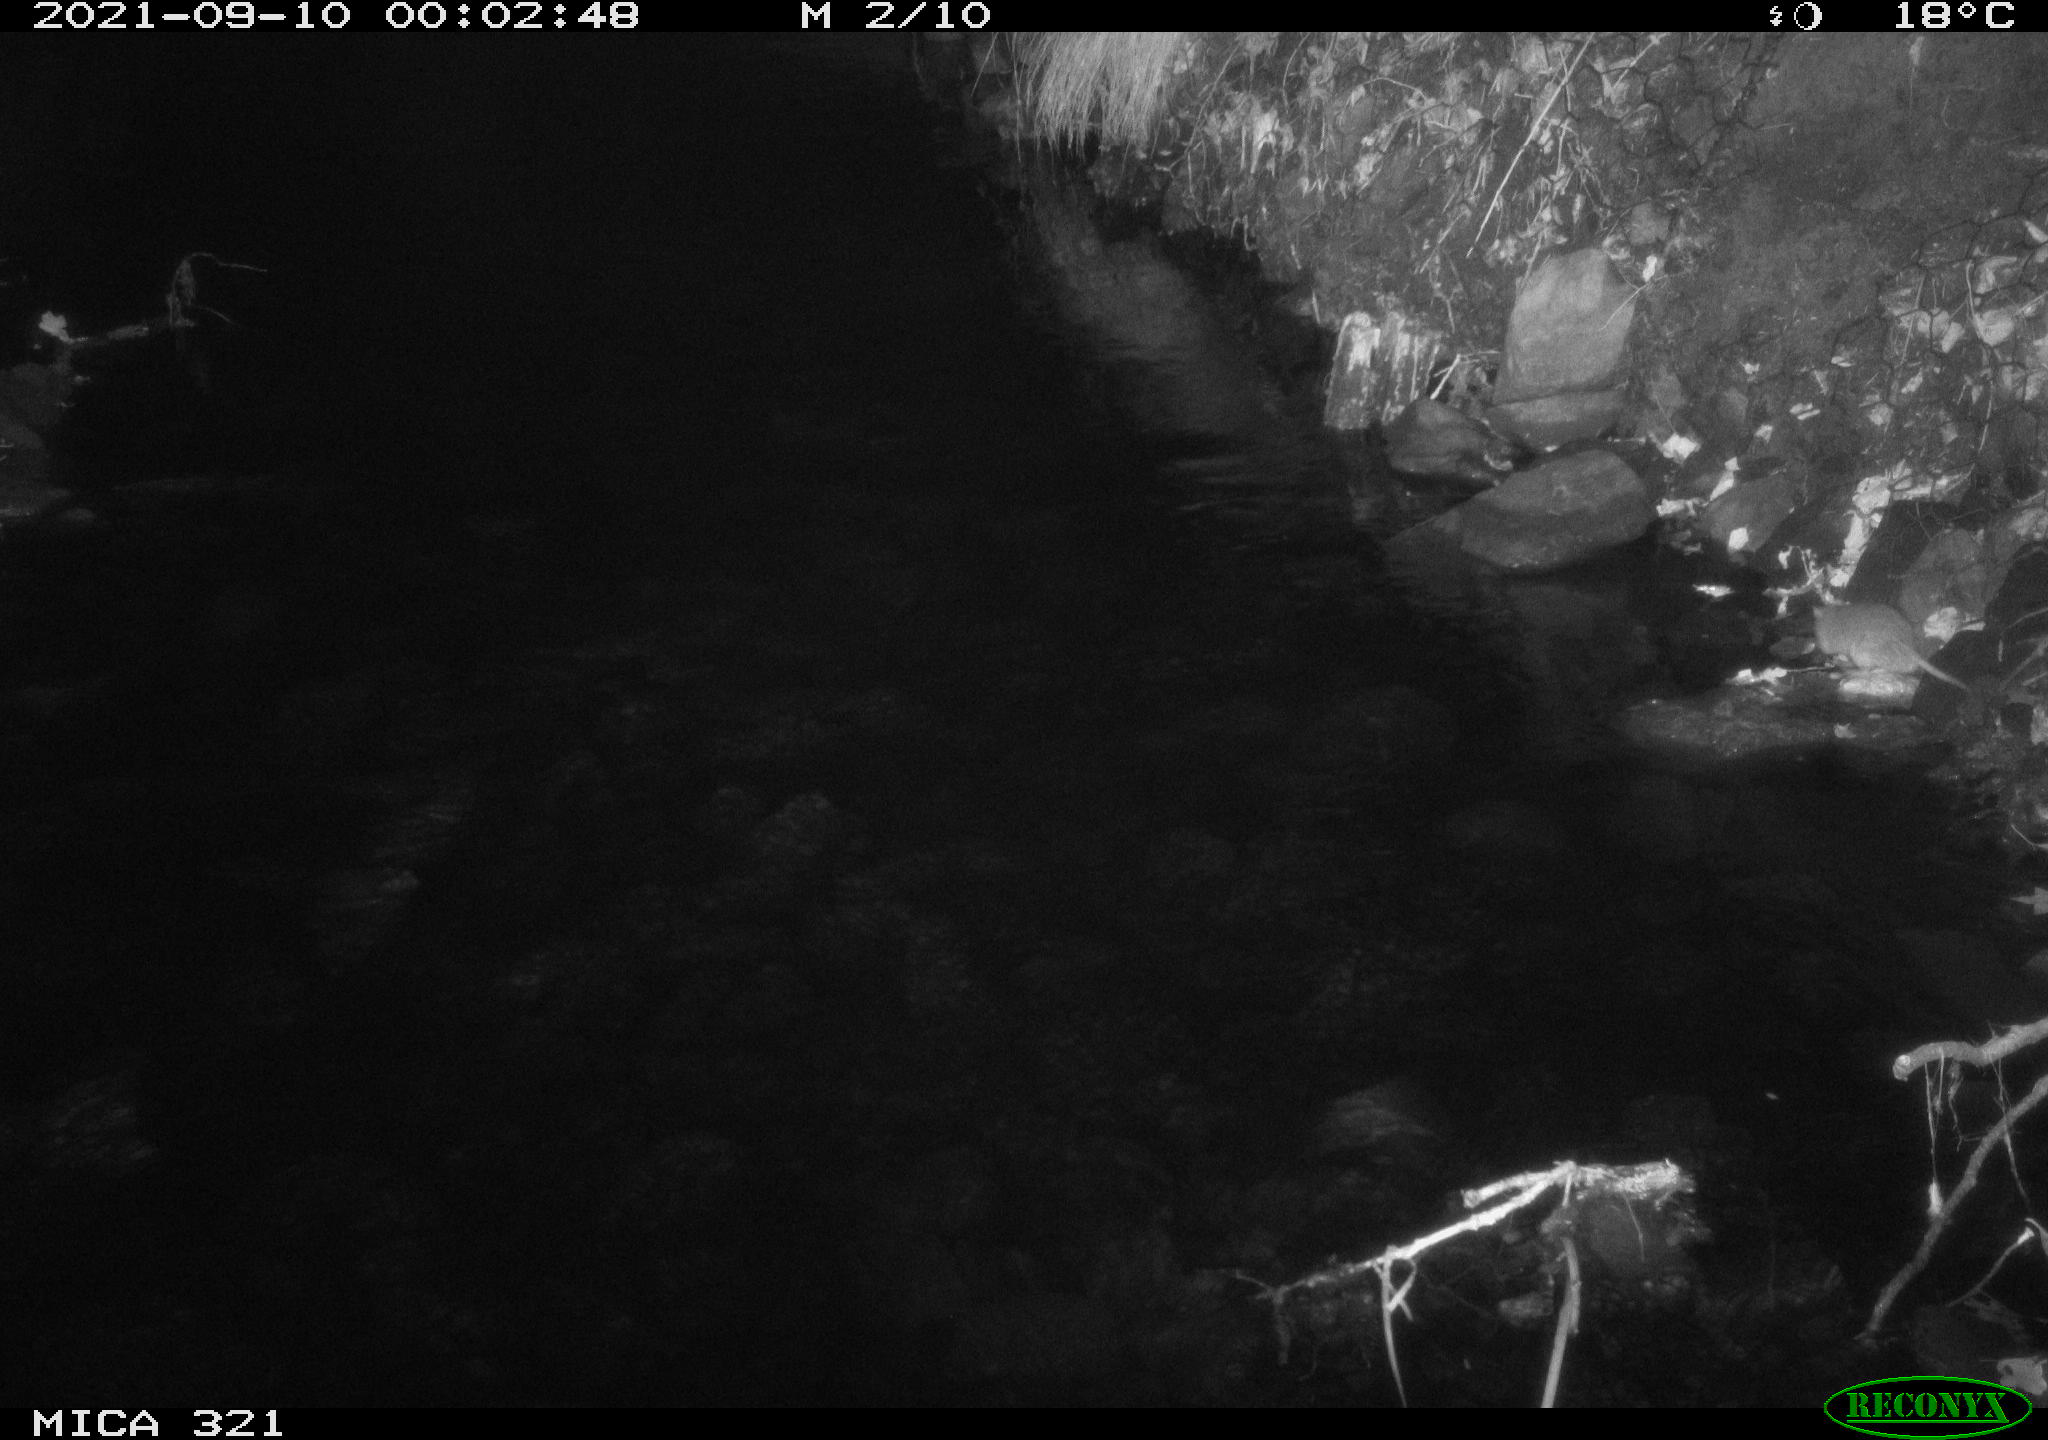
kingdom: Animalia
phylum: Chordata
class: Mammalia
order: Rodentia
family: Muridae
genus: Rattus
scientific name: Rattus norvegicus
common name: Brown rat
